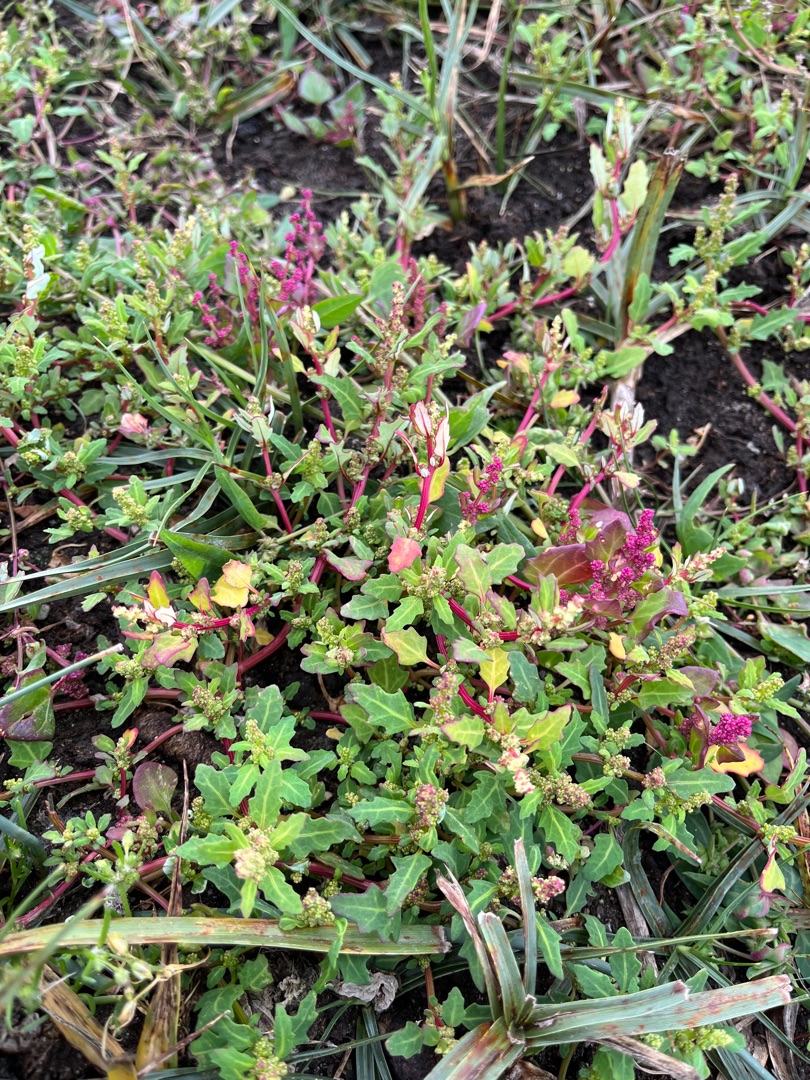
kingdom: Plantae
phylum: Tracheophyta
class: Magnoliopsida
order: Caryophyllales
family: Amaranthaceae
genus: Oxybasis
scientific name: Oxybasis glauca
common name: Blågrøn gåsefod
